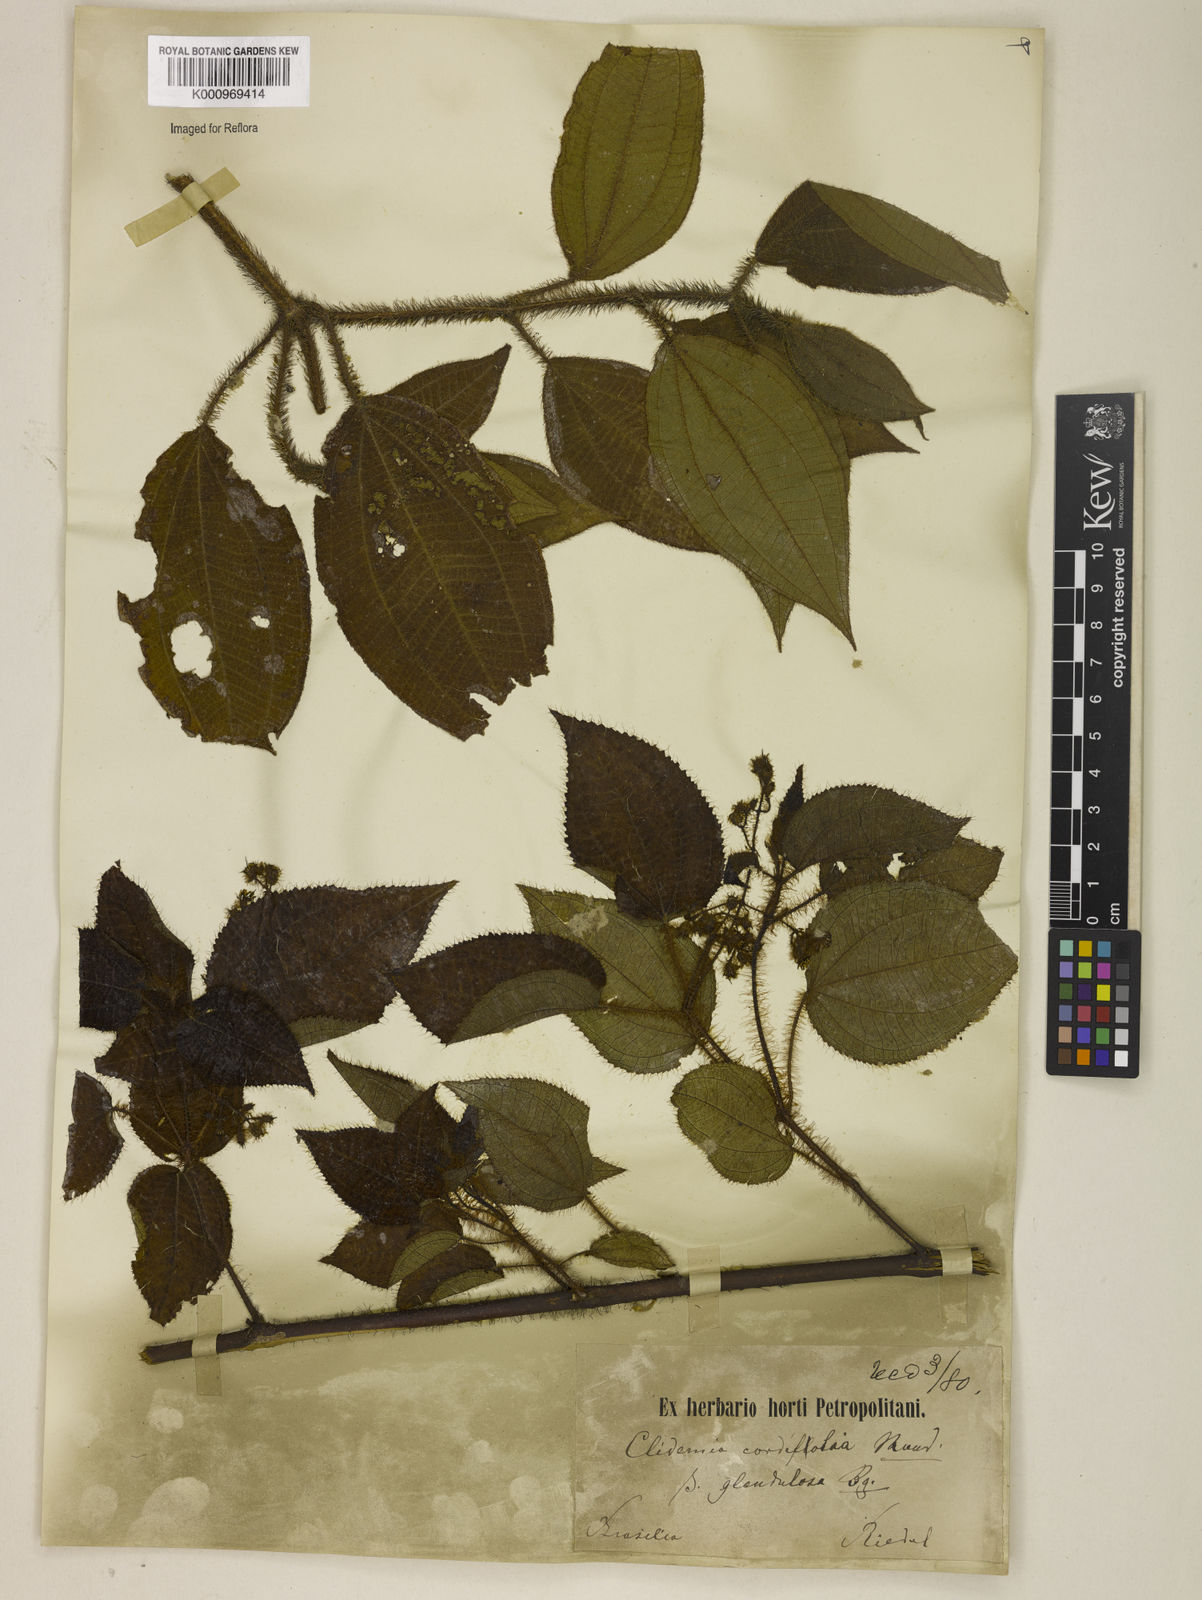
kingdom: Plantae
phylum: Tracheophyta
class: Magnoliopsida
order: Myrtales
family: Melastomataceae
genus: Miconia
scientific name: Miconia leacordifolia
